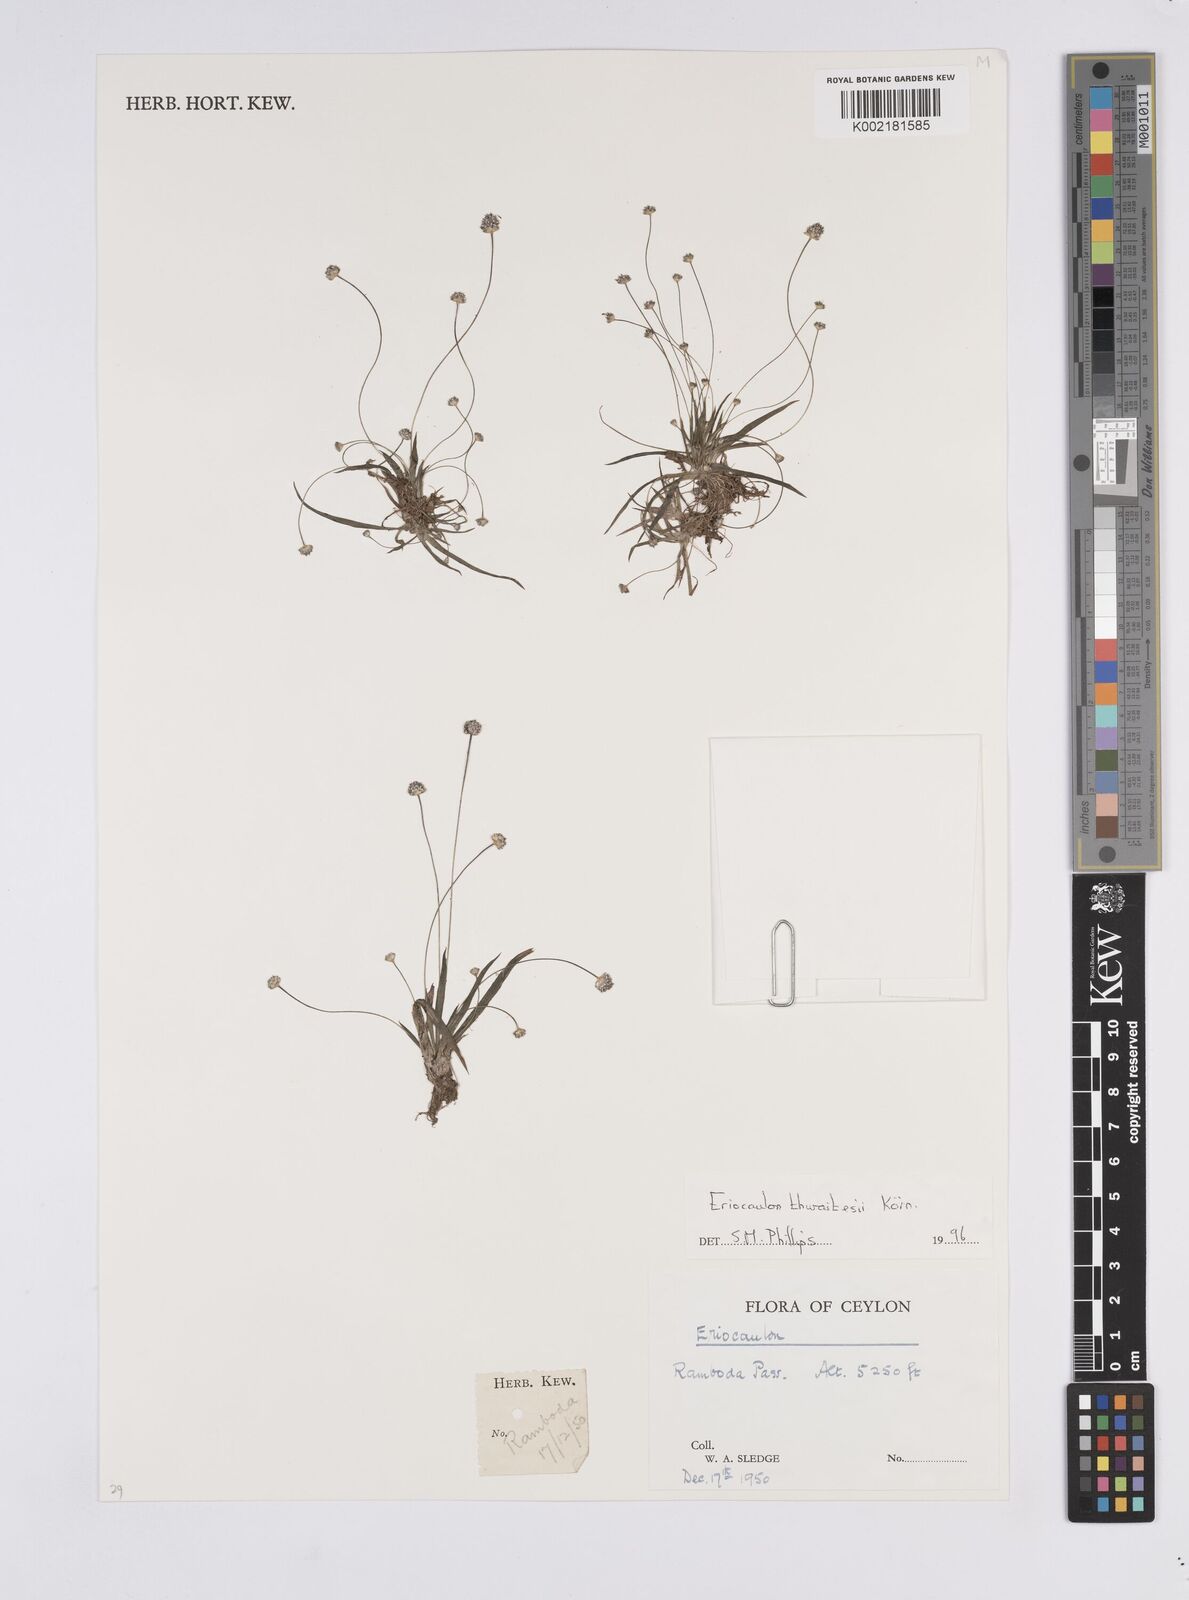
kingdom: Plantae
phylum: Tracheophyta
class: Liliopsida
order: Poales
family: Eriocaulaceae
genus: Eriocaulon
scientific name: Eriocaulon thwaitesii
